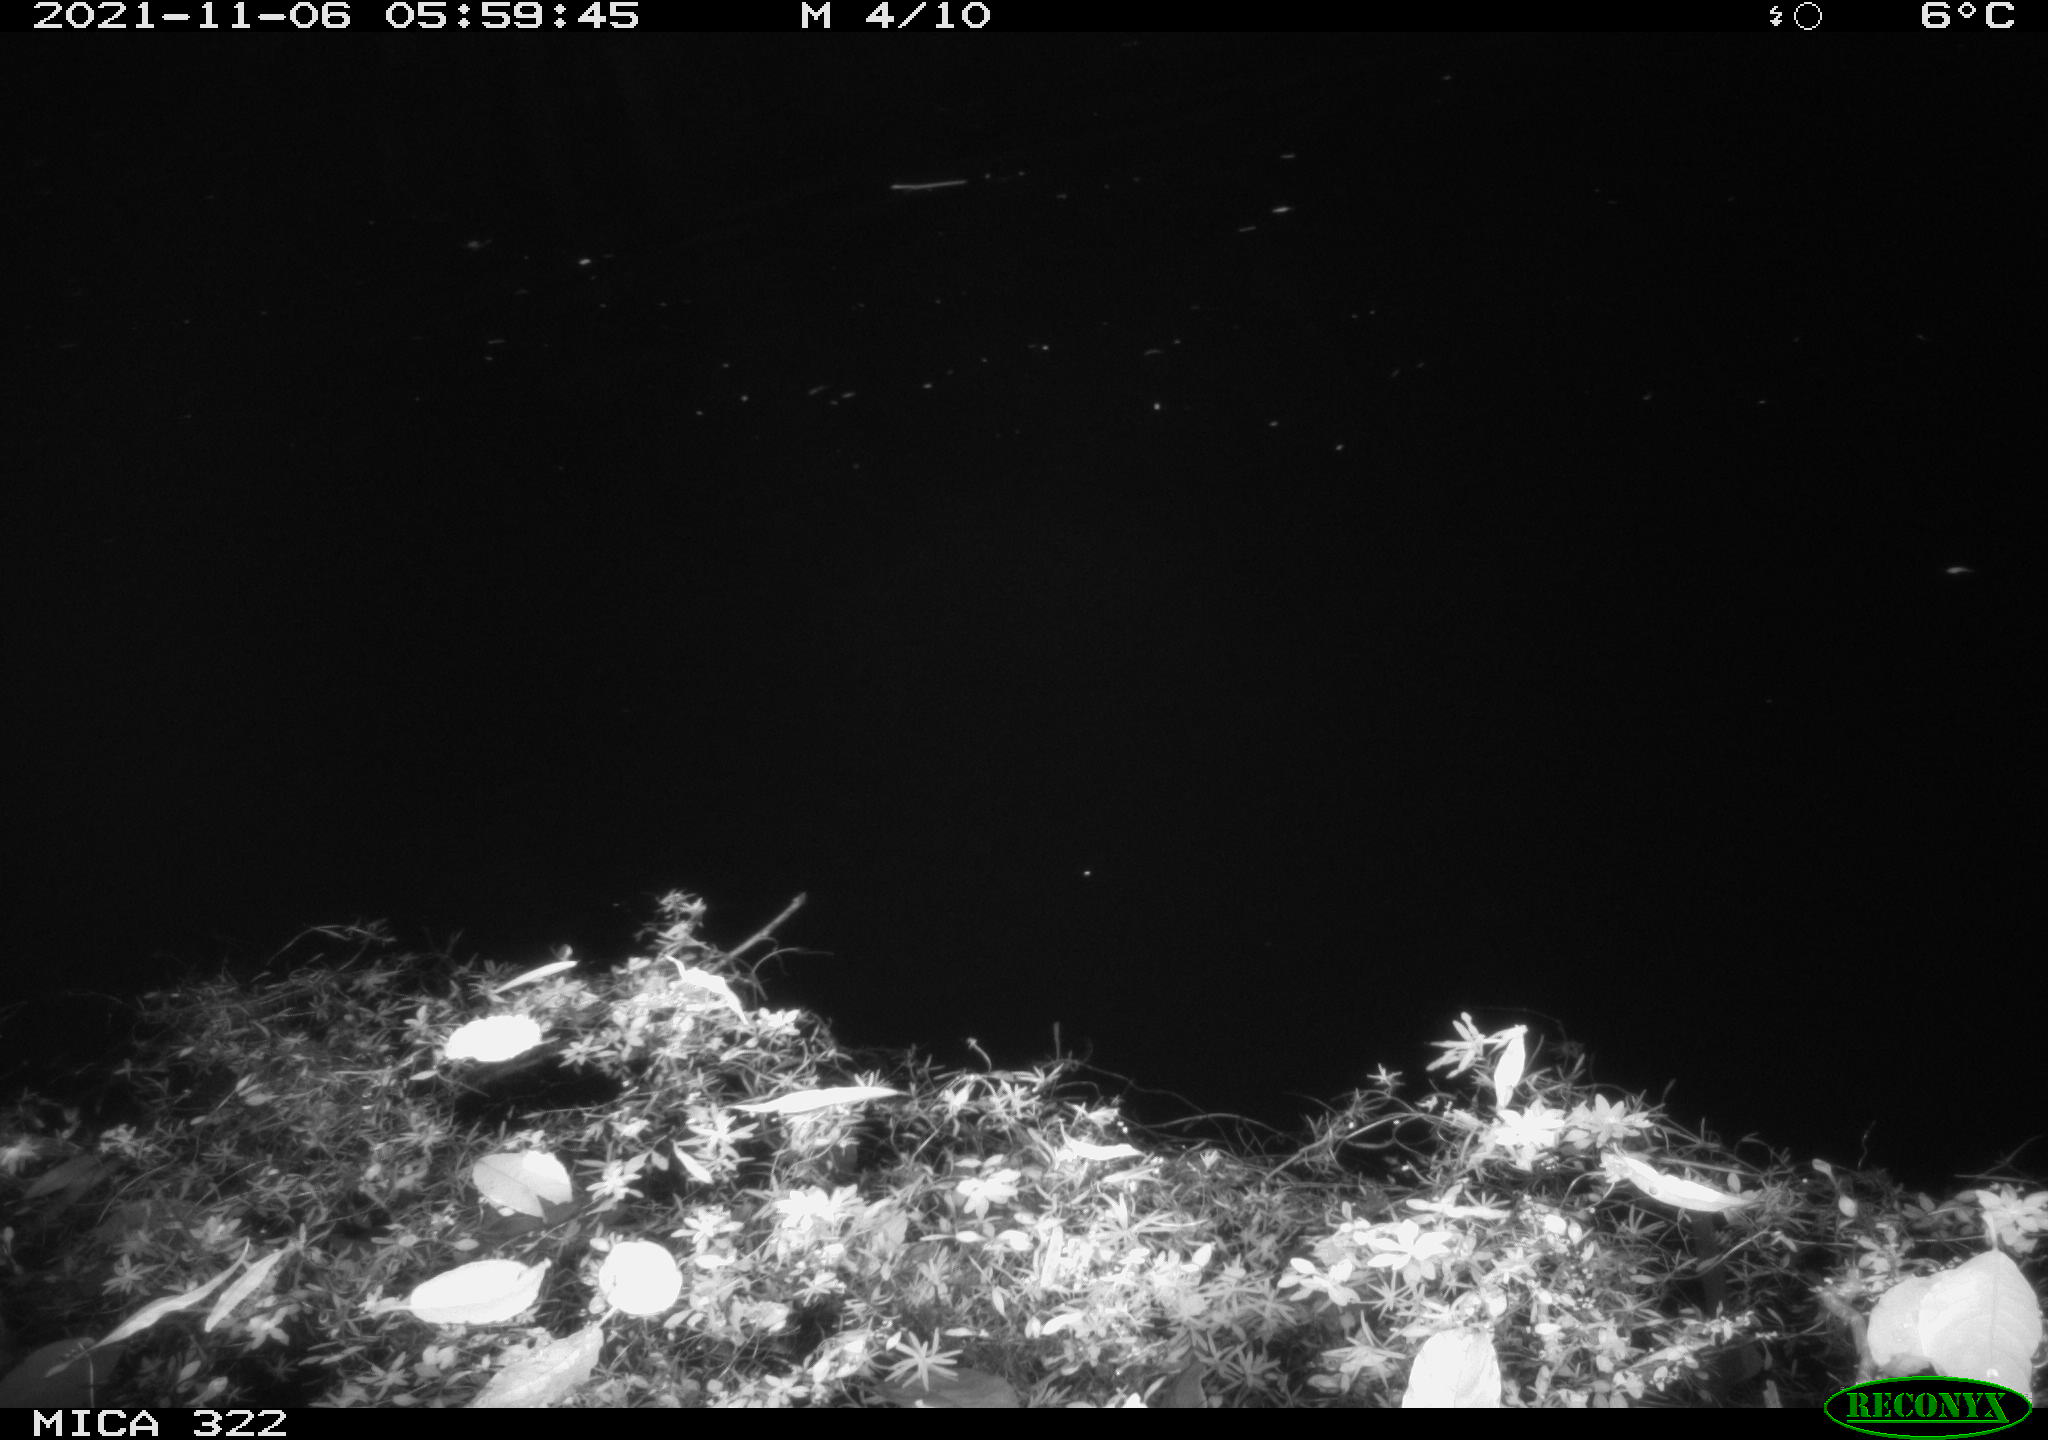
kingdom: Animalia
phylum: Chordata
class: Mammalia
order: Rodentia
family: Muridae
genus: Rattus
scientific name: Rattus norvegicus
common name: Brown rat
